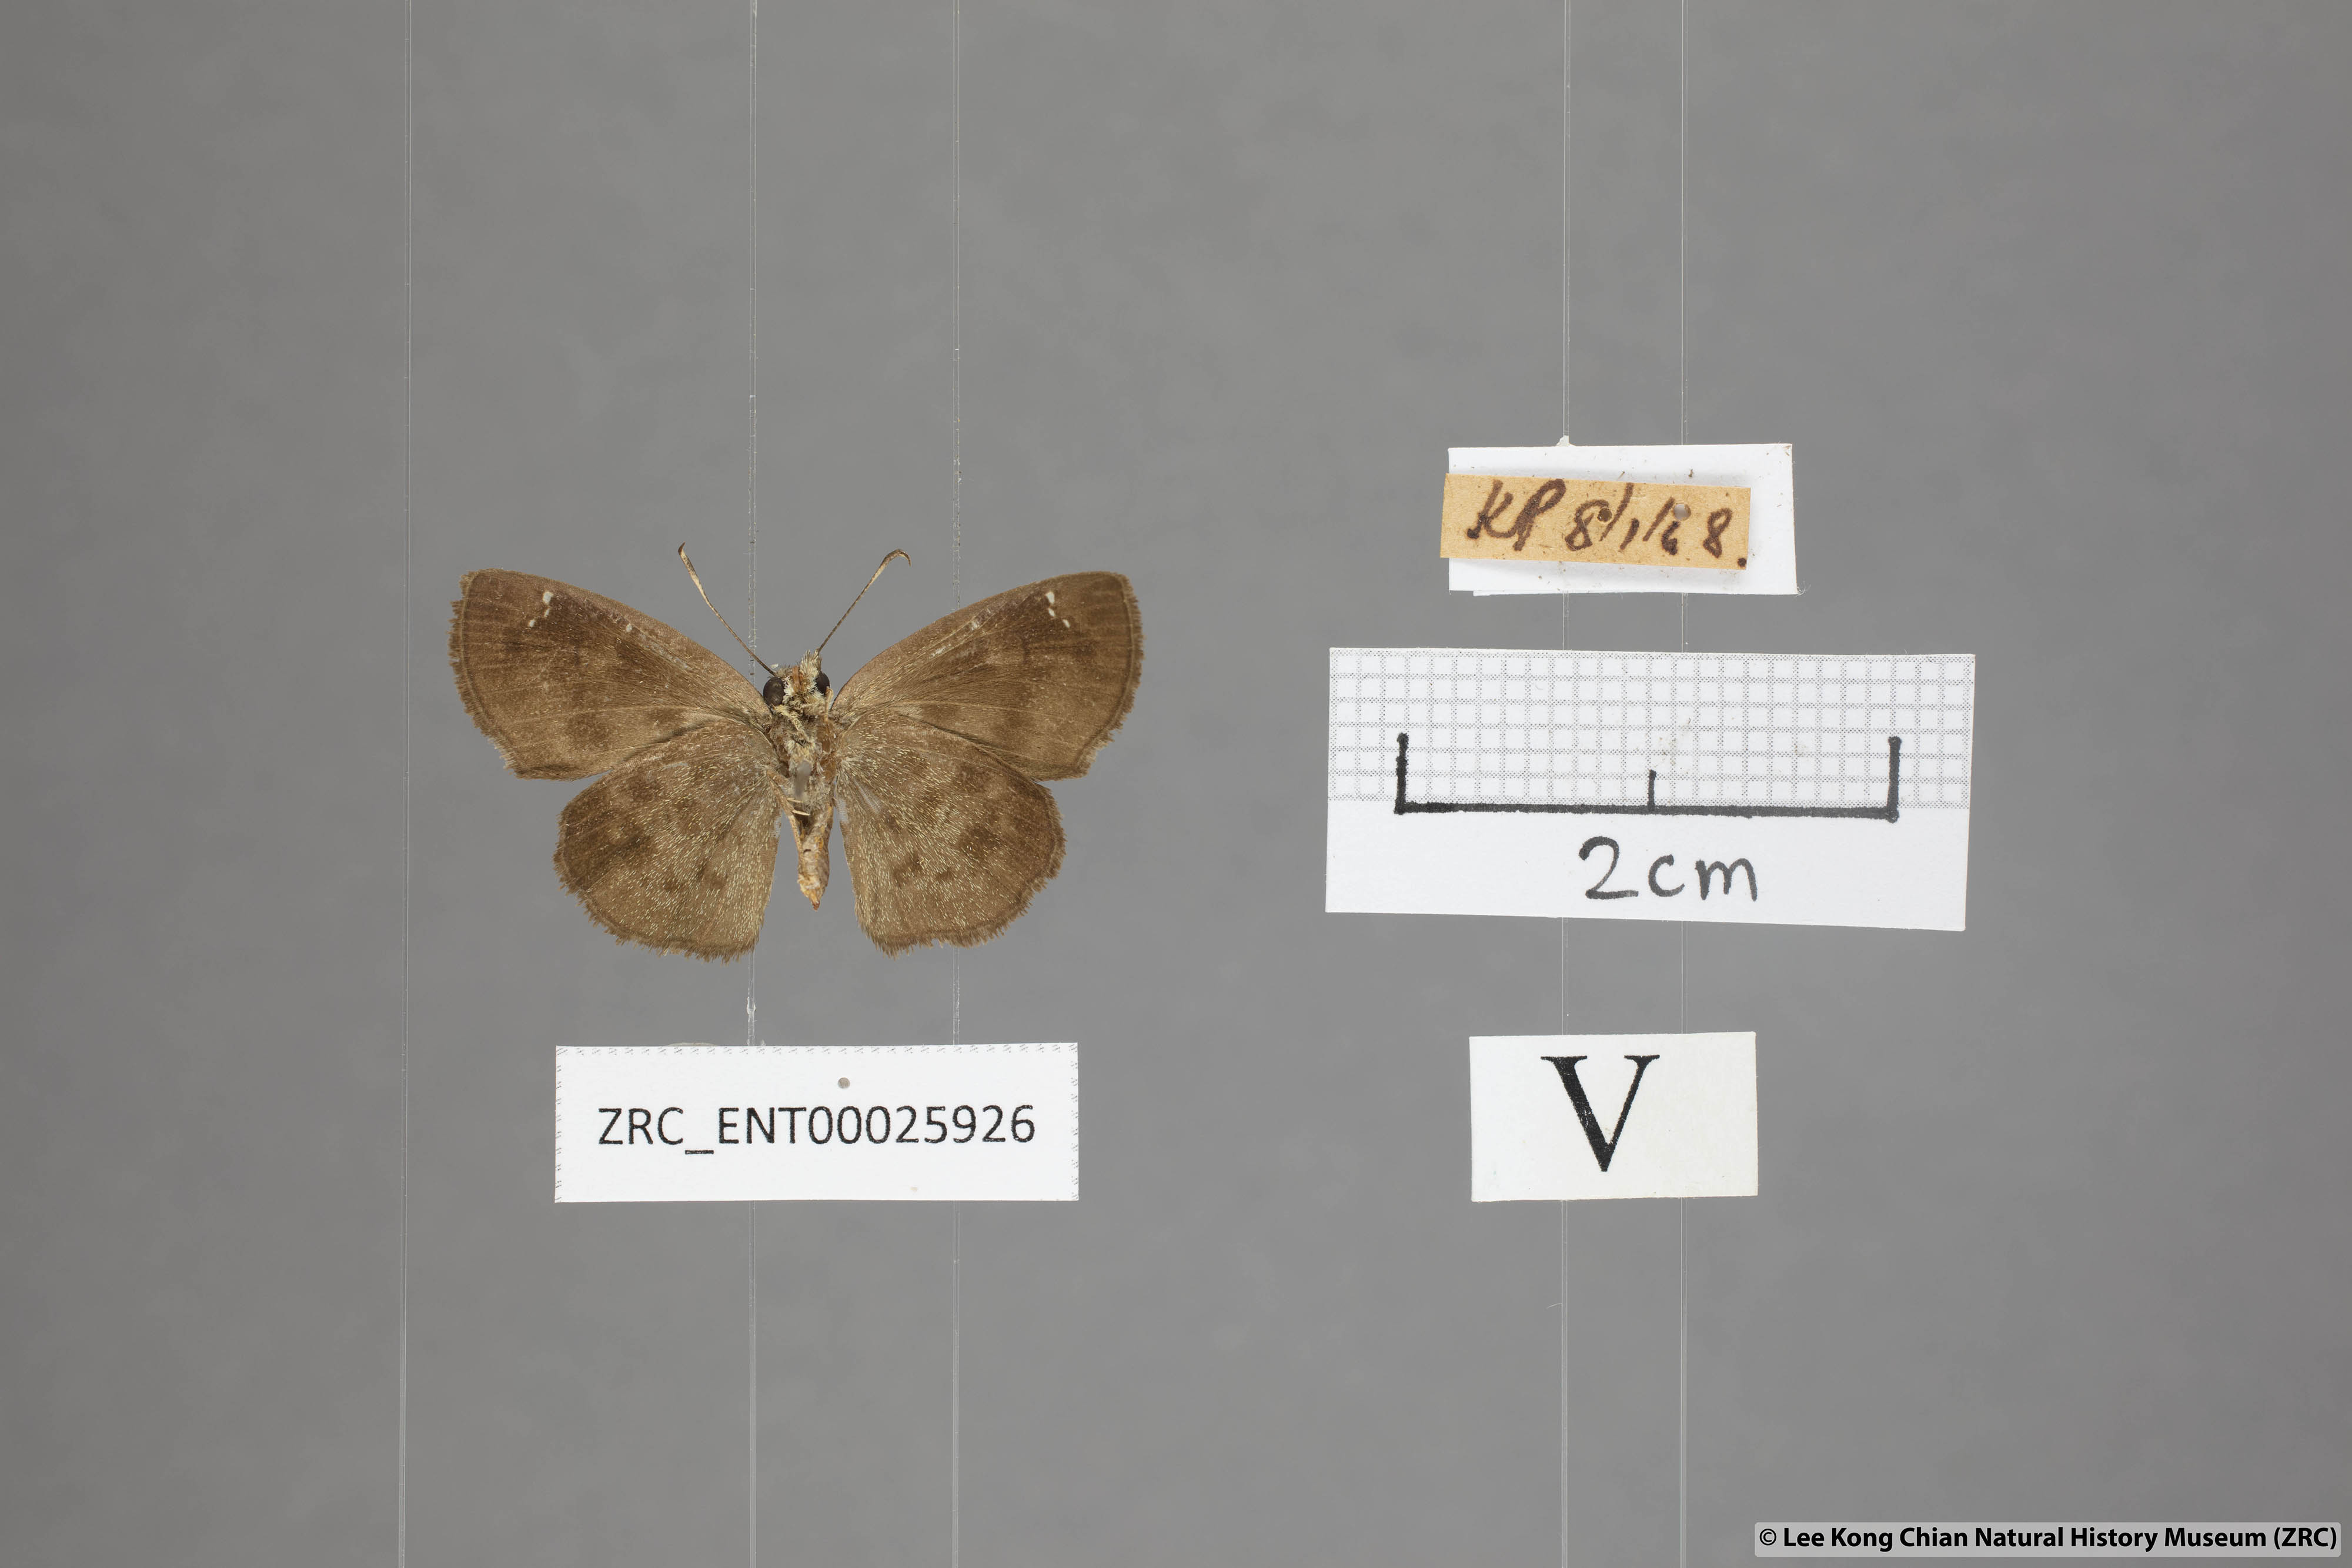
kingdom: Animalia
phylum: Arthropoda
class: Insecta
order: Lepidoptera
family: Hesperiidae
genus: Sarangesa
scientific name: Sarangesa dasahara
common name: Common small flat
